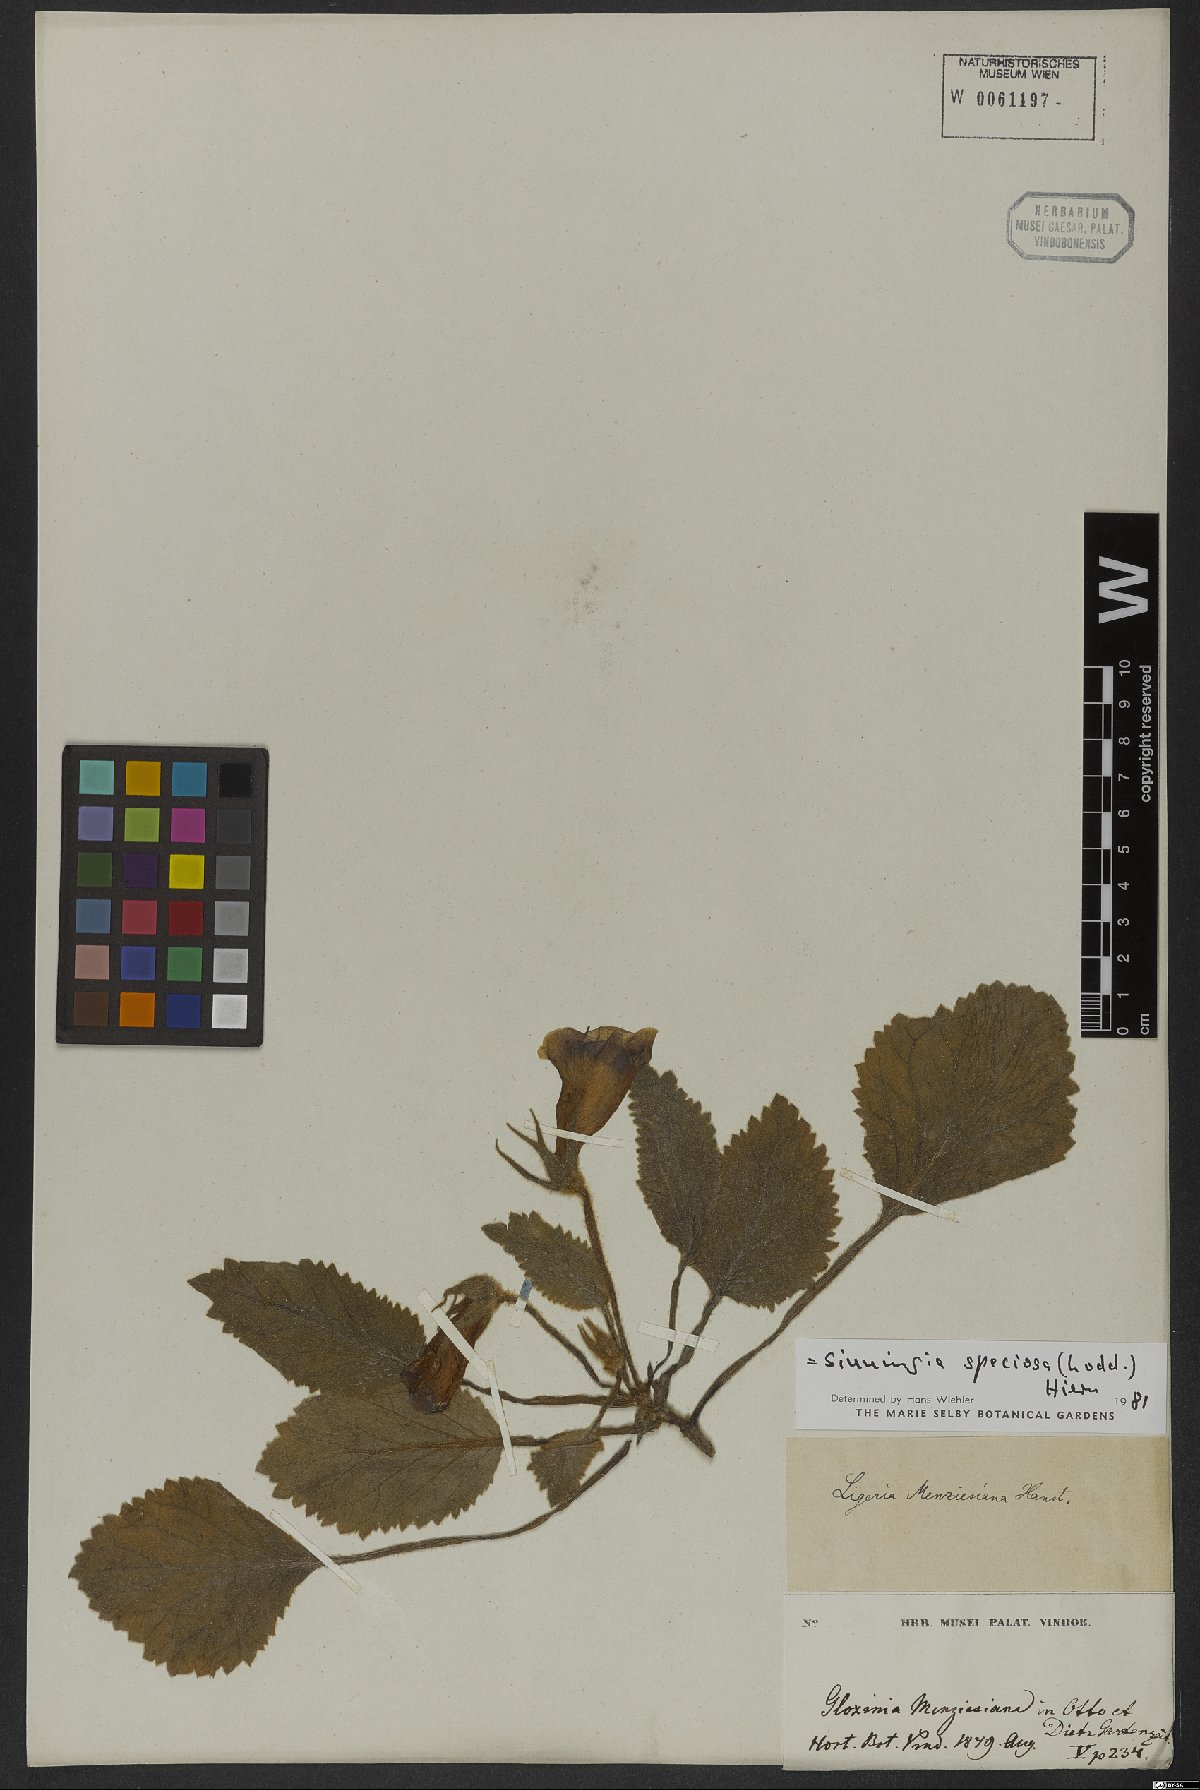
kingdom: Plantae
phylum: Tracheophyta
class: Magnoliopsida
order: Lamiales
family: Gesneriaceae
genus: Sinningia
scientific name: Sinningia speciosa
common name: Brazilian gloxinia
